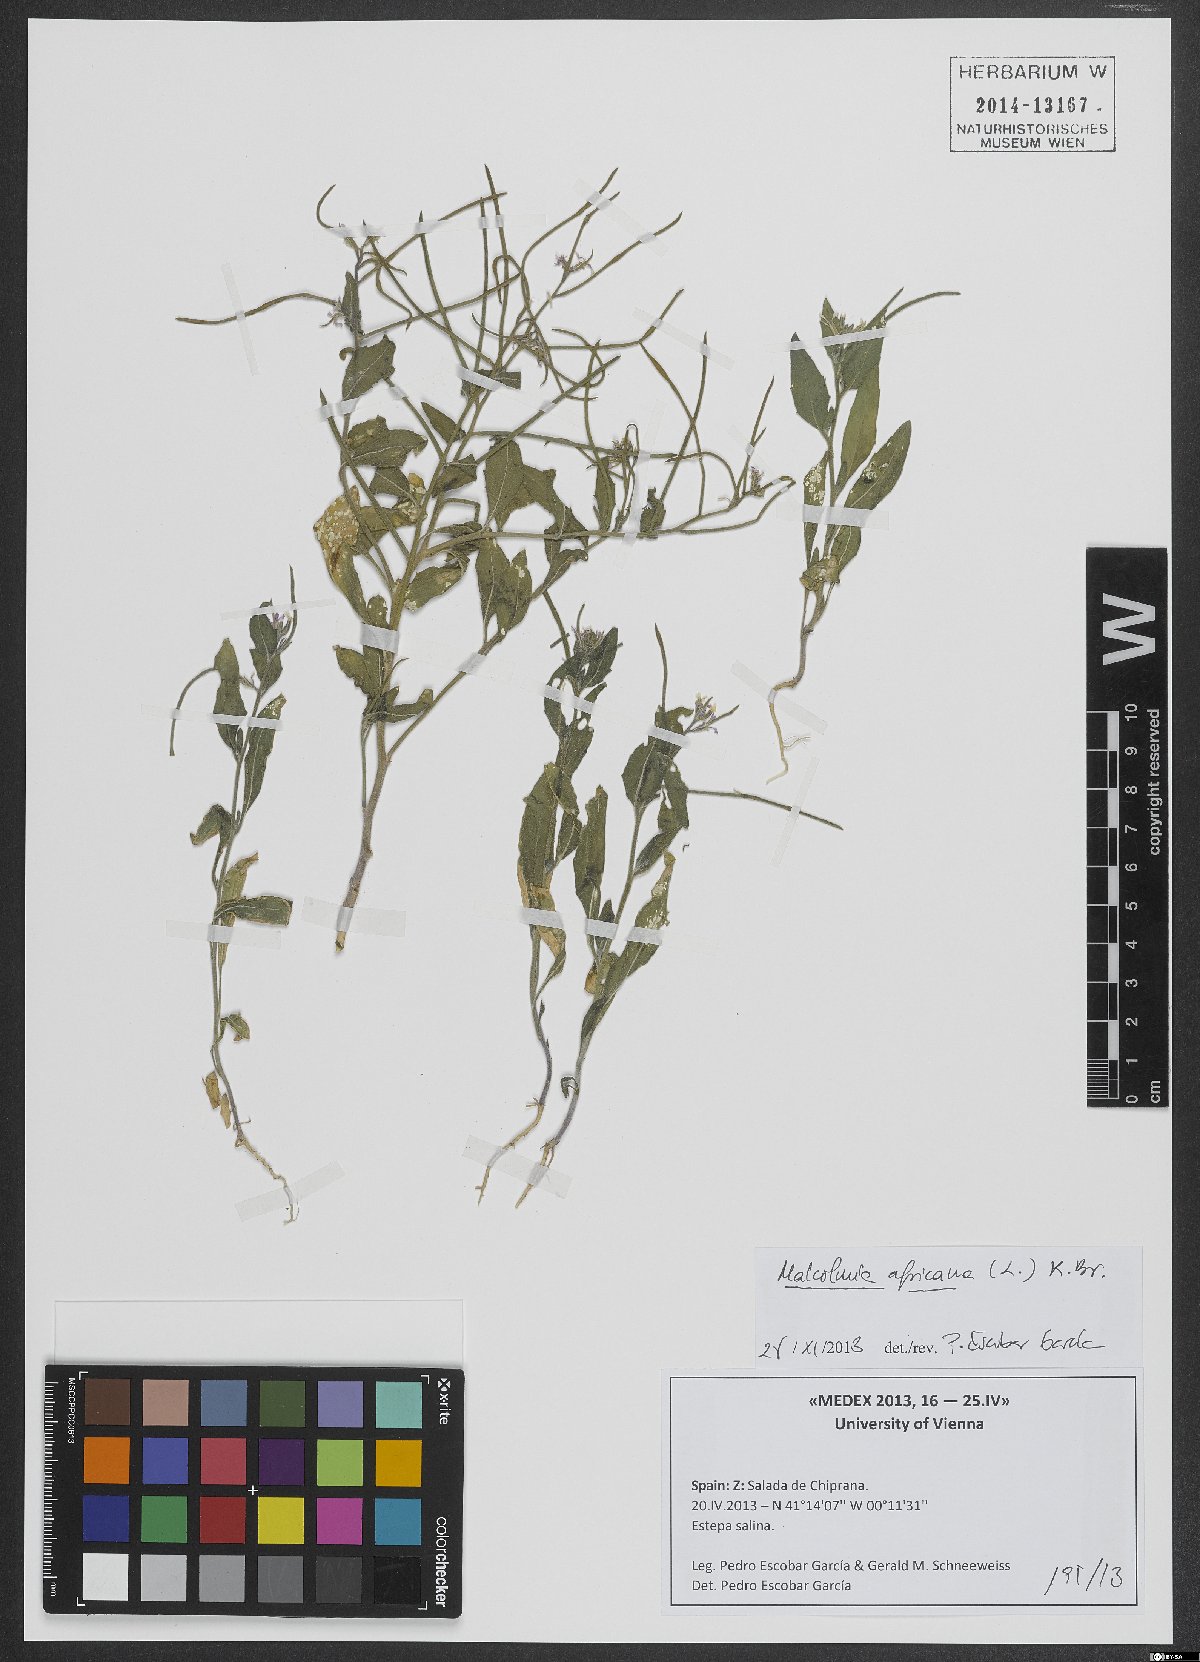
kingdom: Plantae
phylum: Tracheophyta
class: Magnoliopsida
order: Brassicales
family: Brassicaceae
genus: Malcolmia
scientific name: Malcolmia africana
